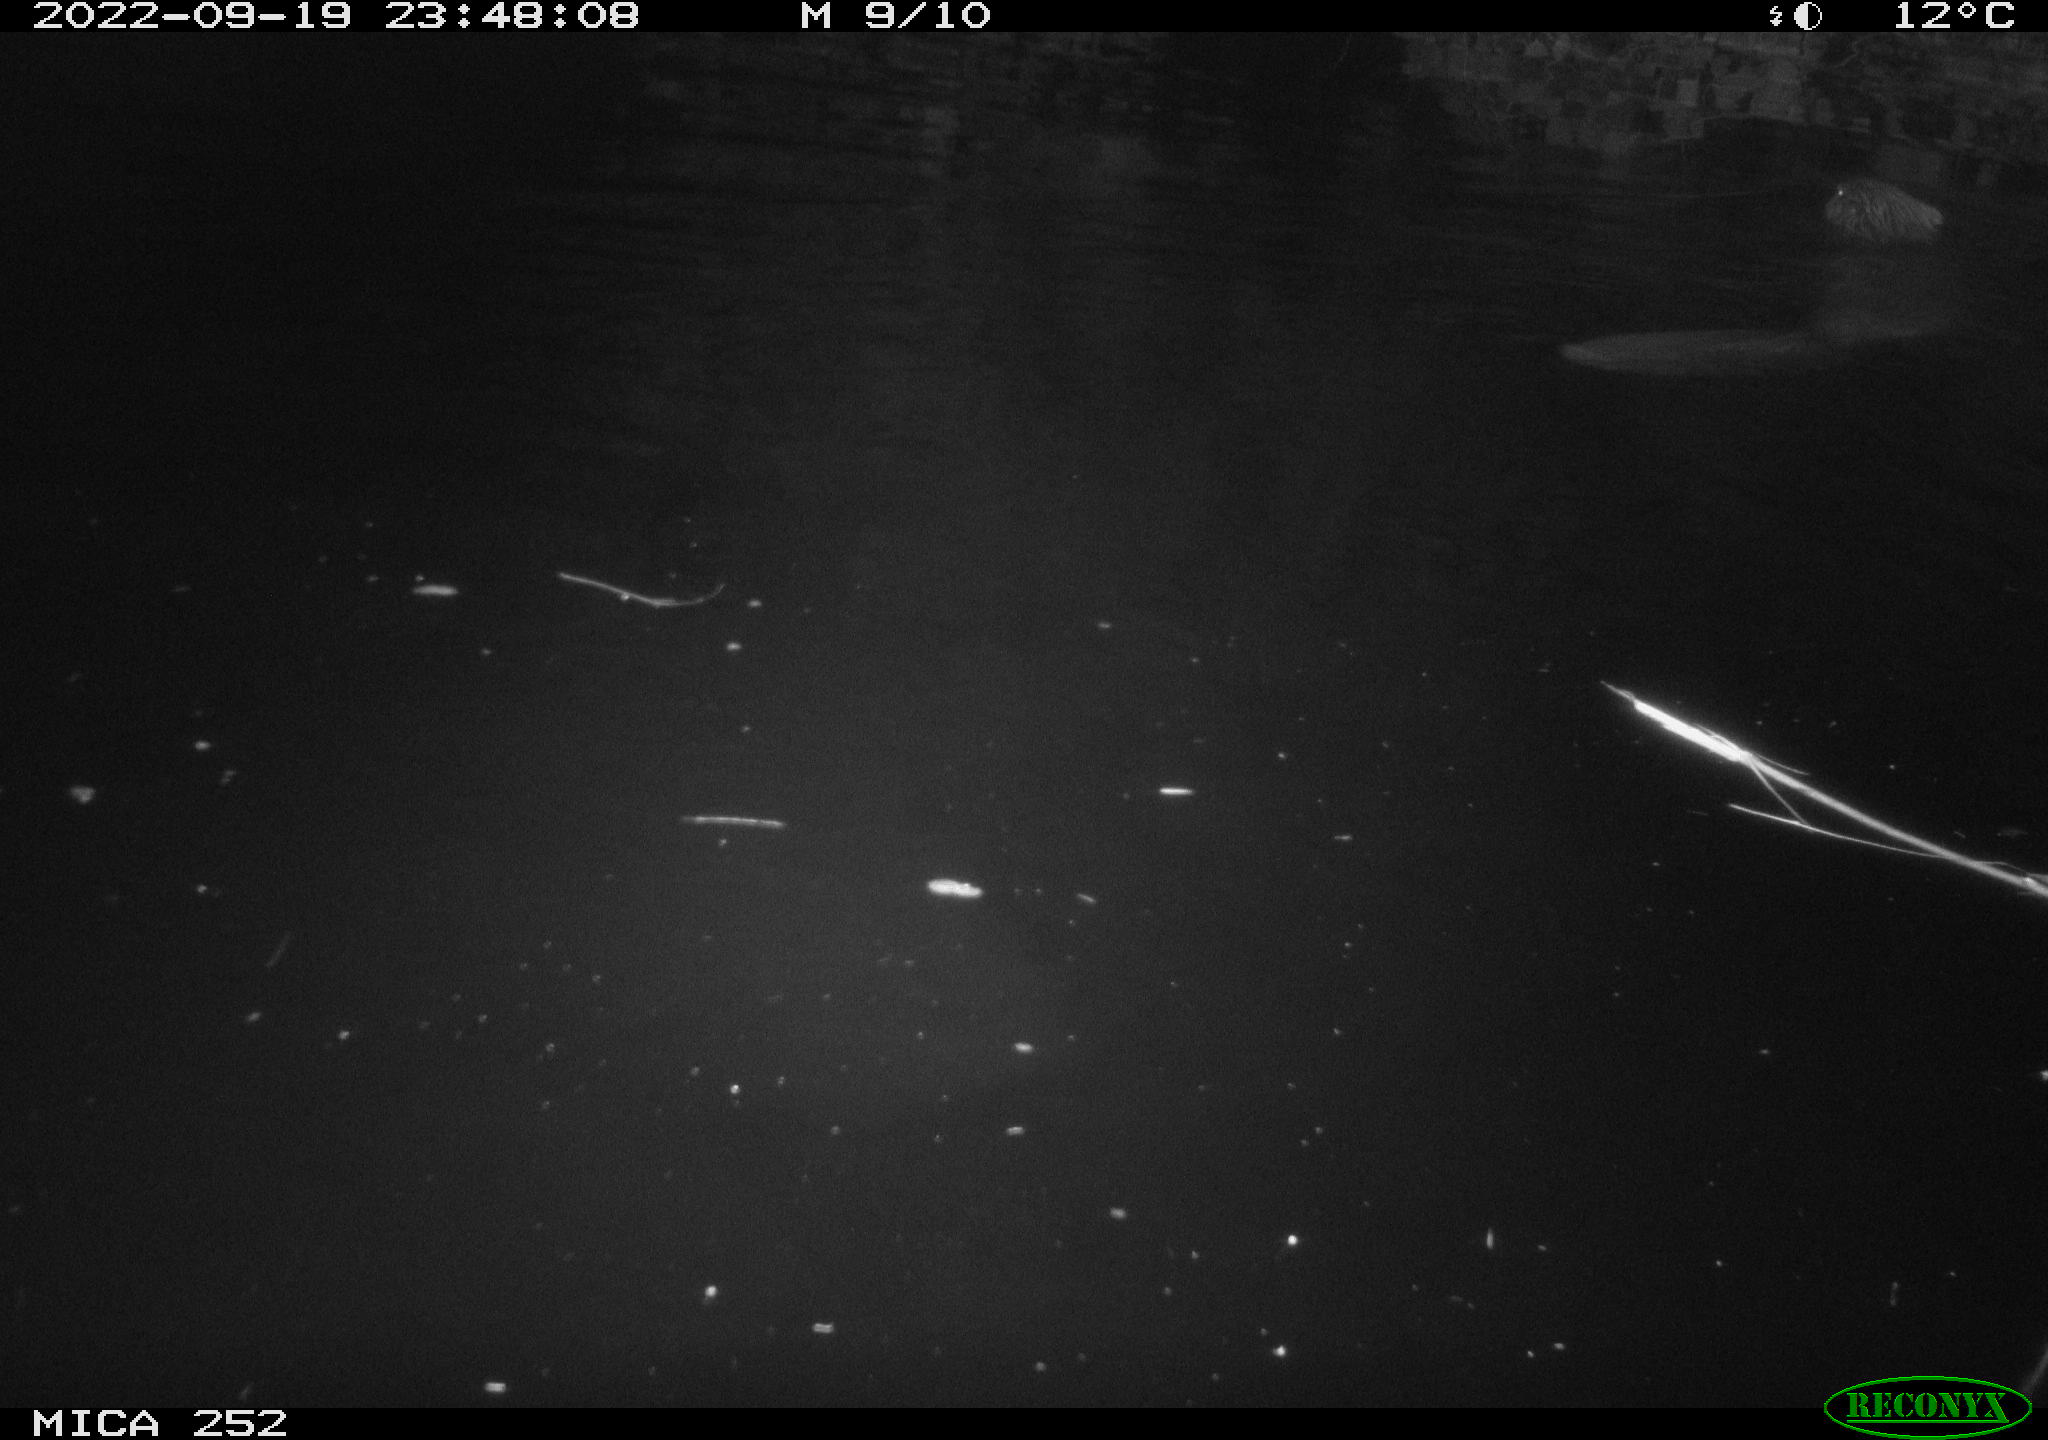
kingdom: Animalia
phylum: Chordata
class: Mammalia
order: Rodentia
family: Castoridae
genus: Castor
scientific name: Castor fiber
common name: Eurasian beaver
